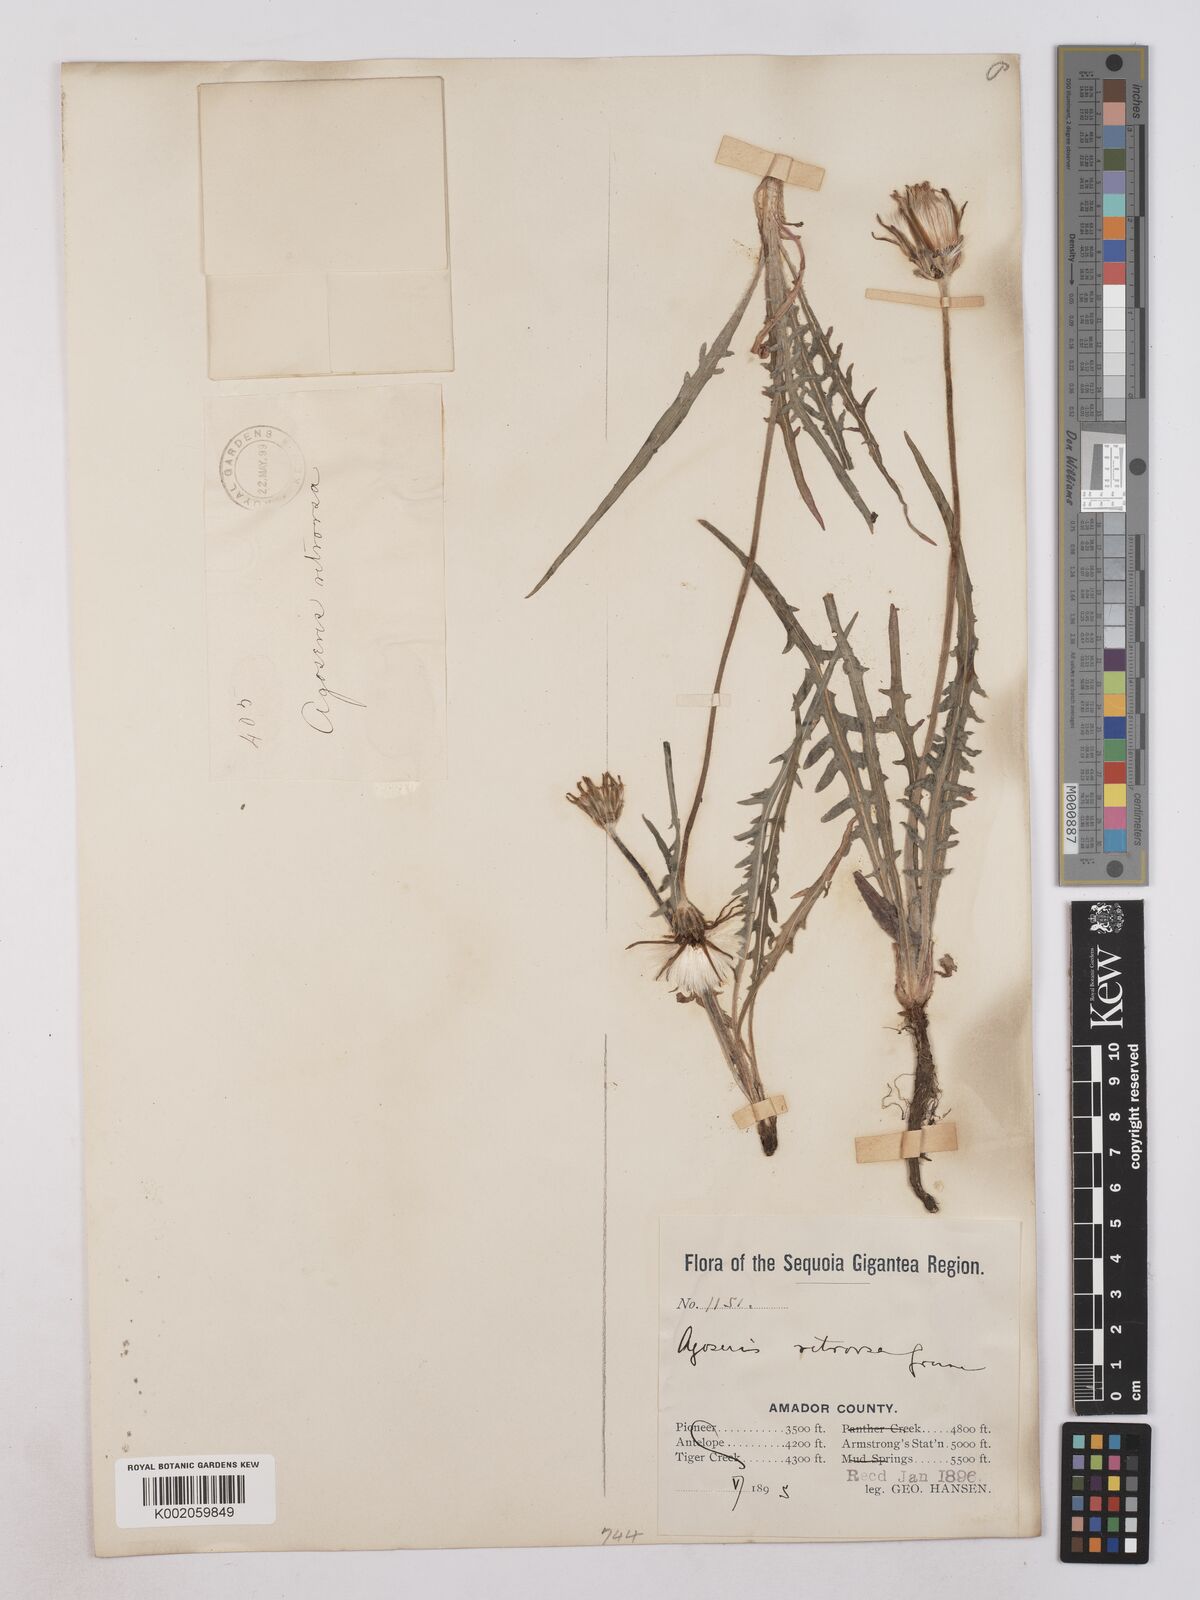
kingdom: Plantae
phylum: Tracheophyta
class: Magnoliopsida
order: Asterales
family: Asteraceae
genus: Agoseris
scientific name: Agoseris retrorsa
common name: Spearleaf agoseris
